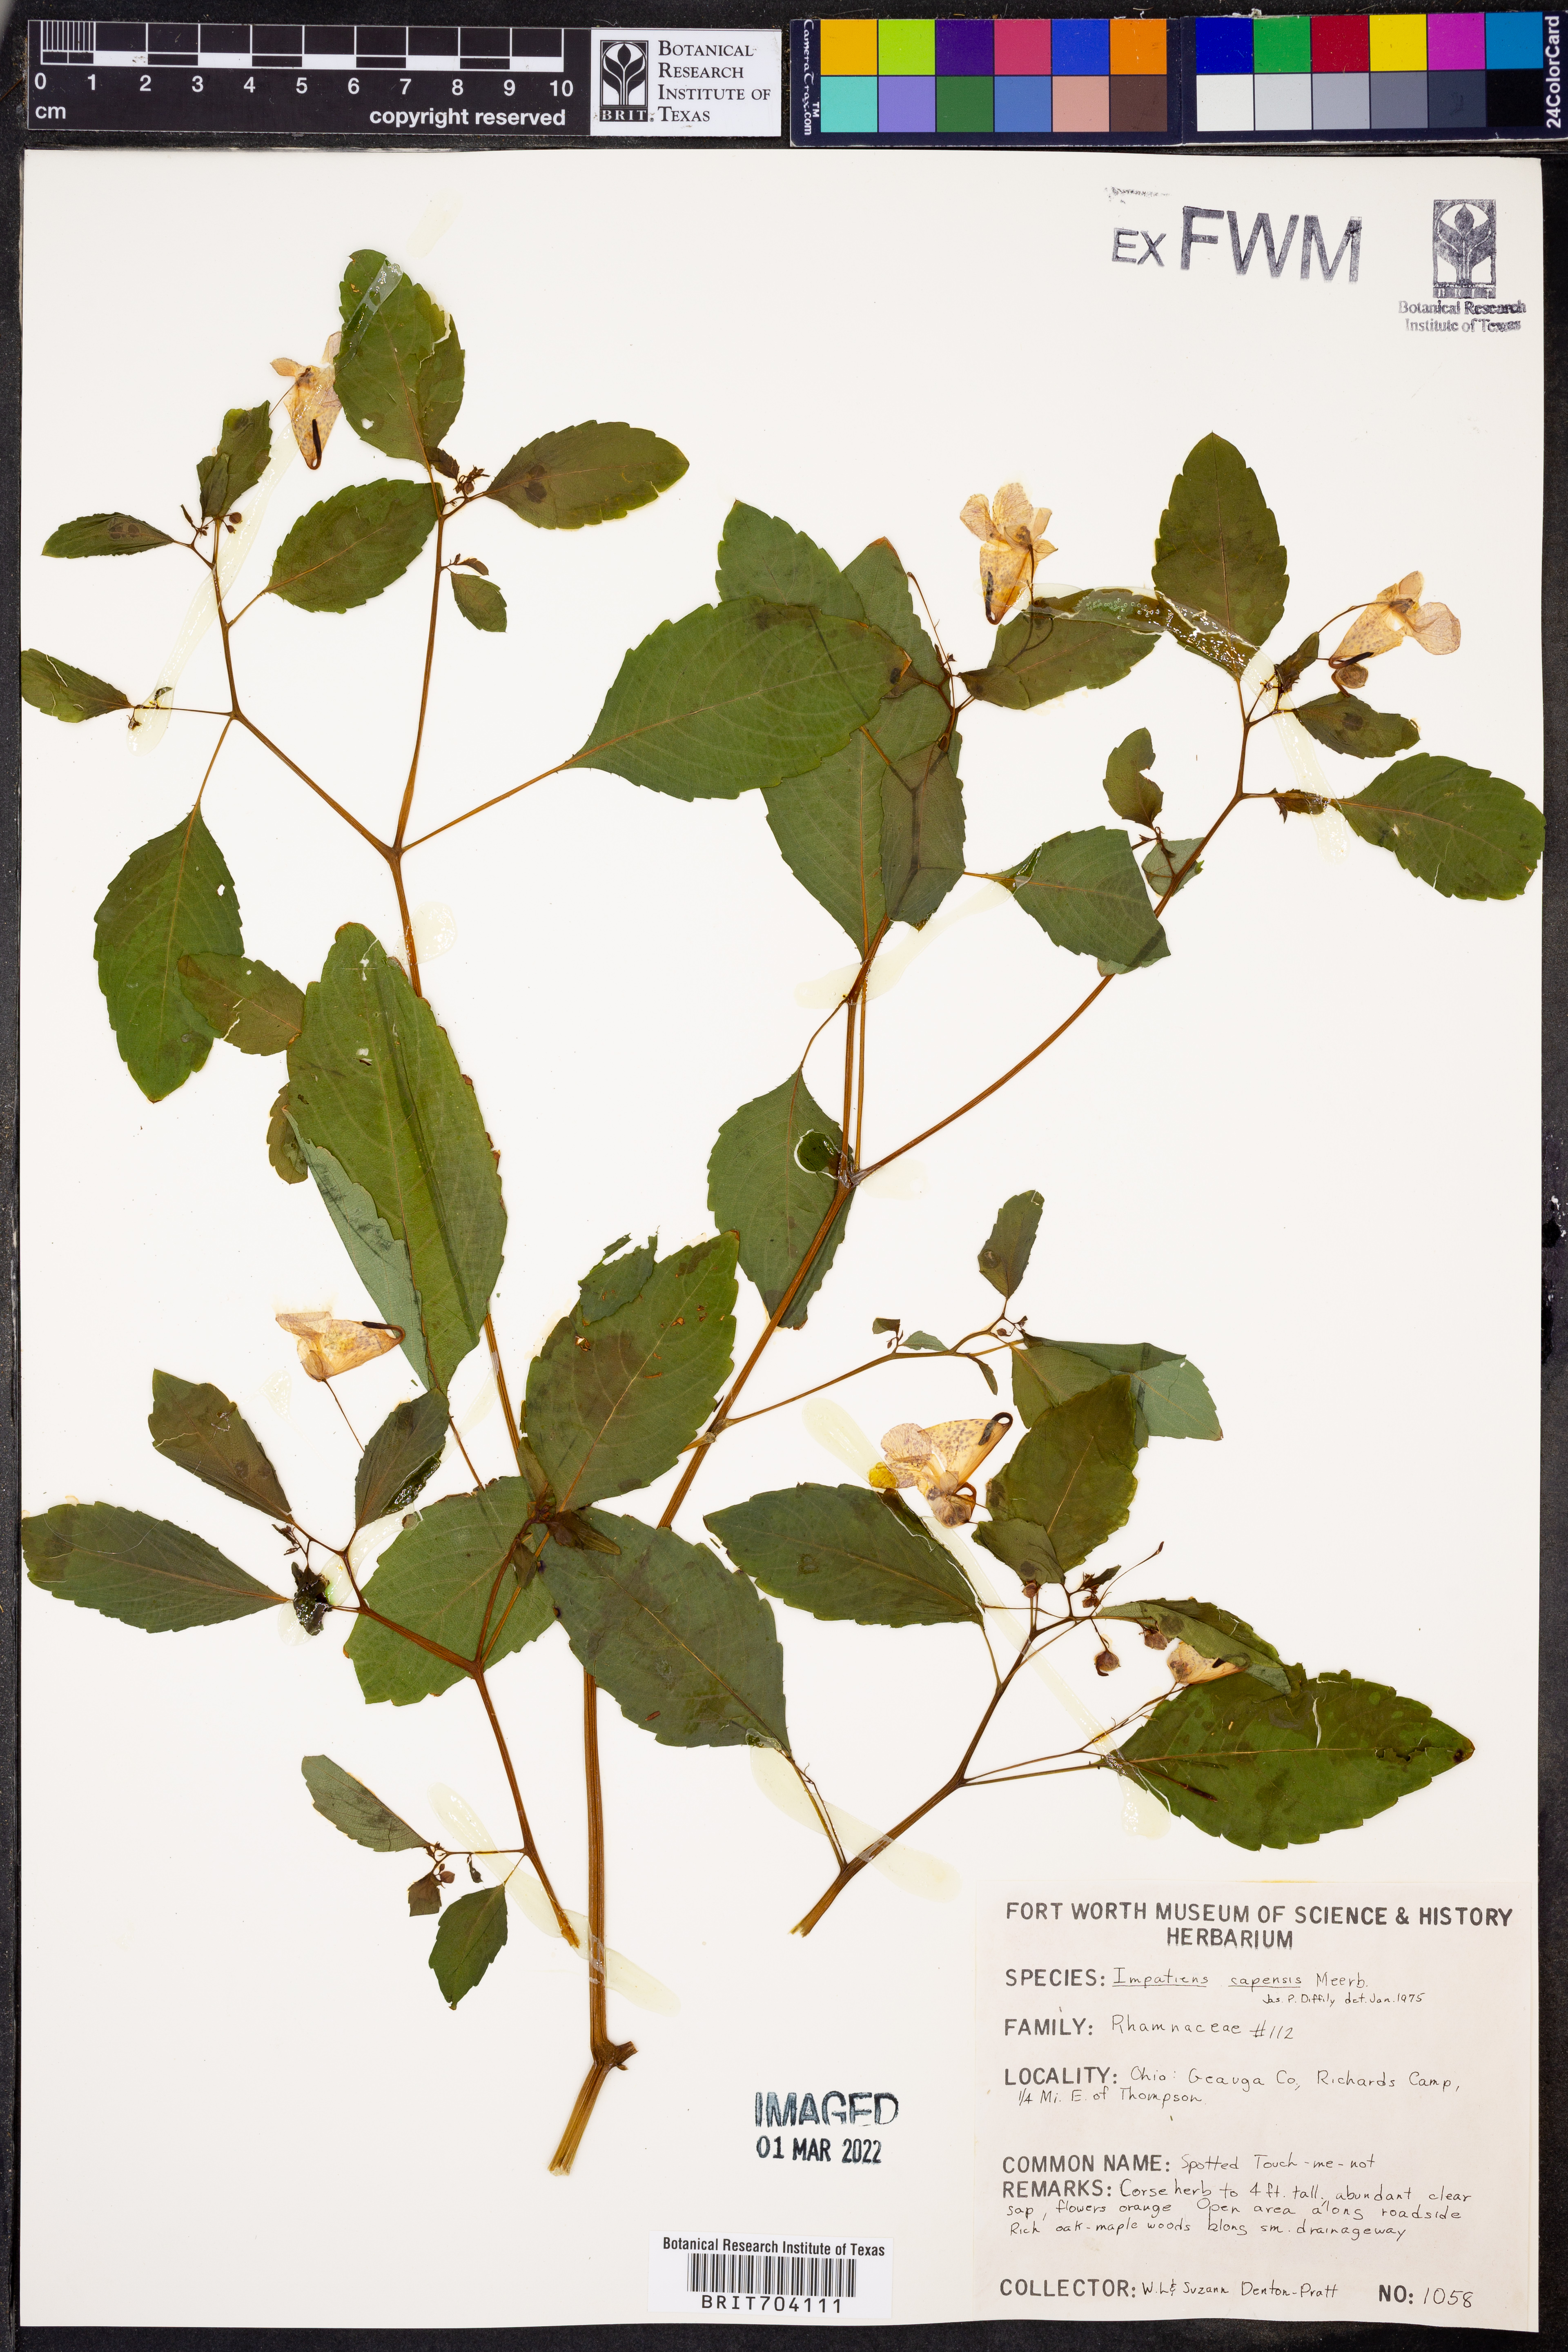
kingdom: Plantae
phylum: Tracheophyta
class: Magnoliopsida
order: Ericales
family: Balsaminaceae
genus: Impatiens
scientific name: Impatiens capensis
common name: Orange balsam
